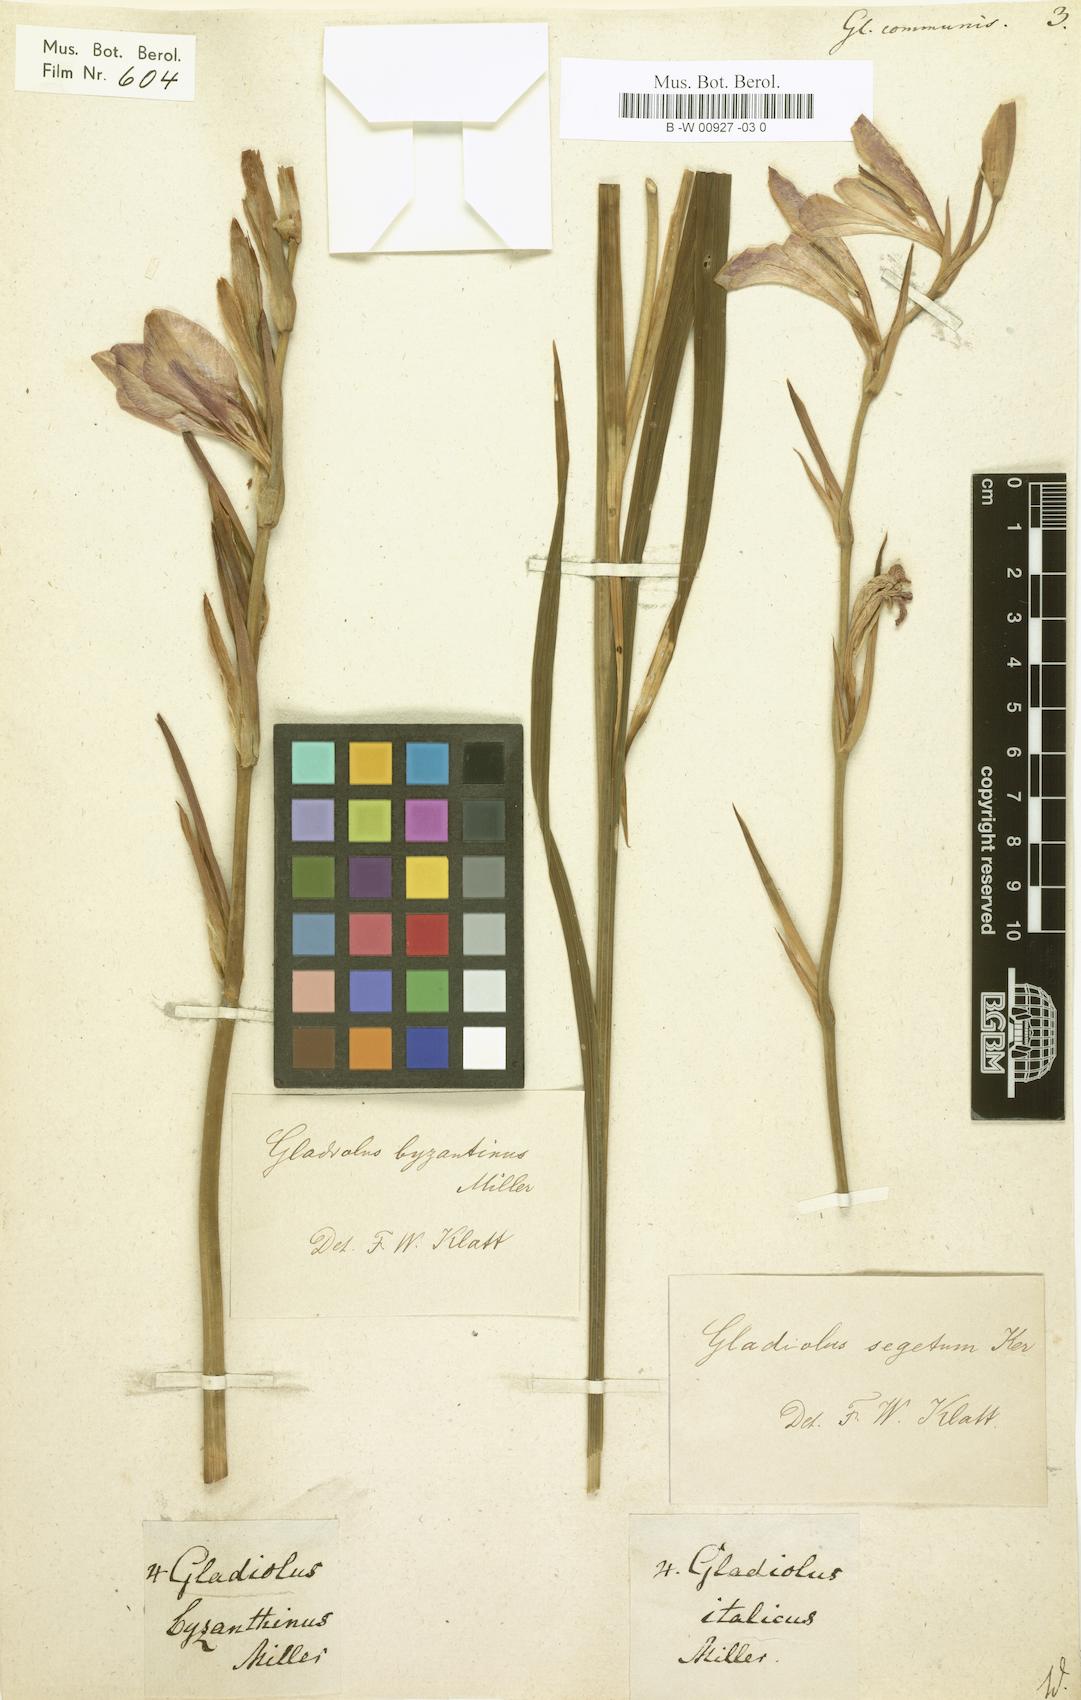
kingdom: Plantae
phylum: Tracheophyta
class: Liliopsida
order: Asparagales
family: Iridaceae
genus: Gladiolus
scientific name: Gladiolus communis
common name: Eastern gladiolus
